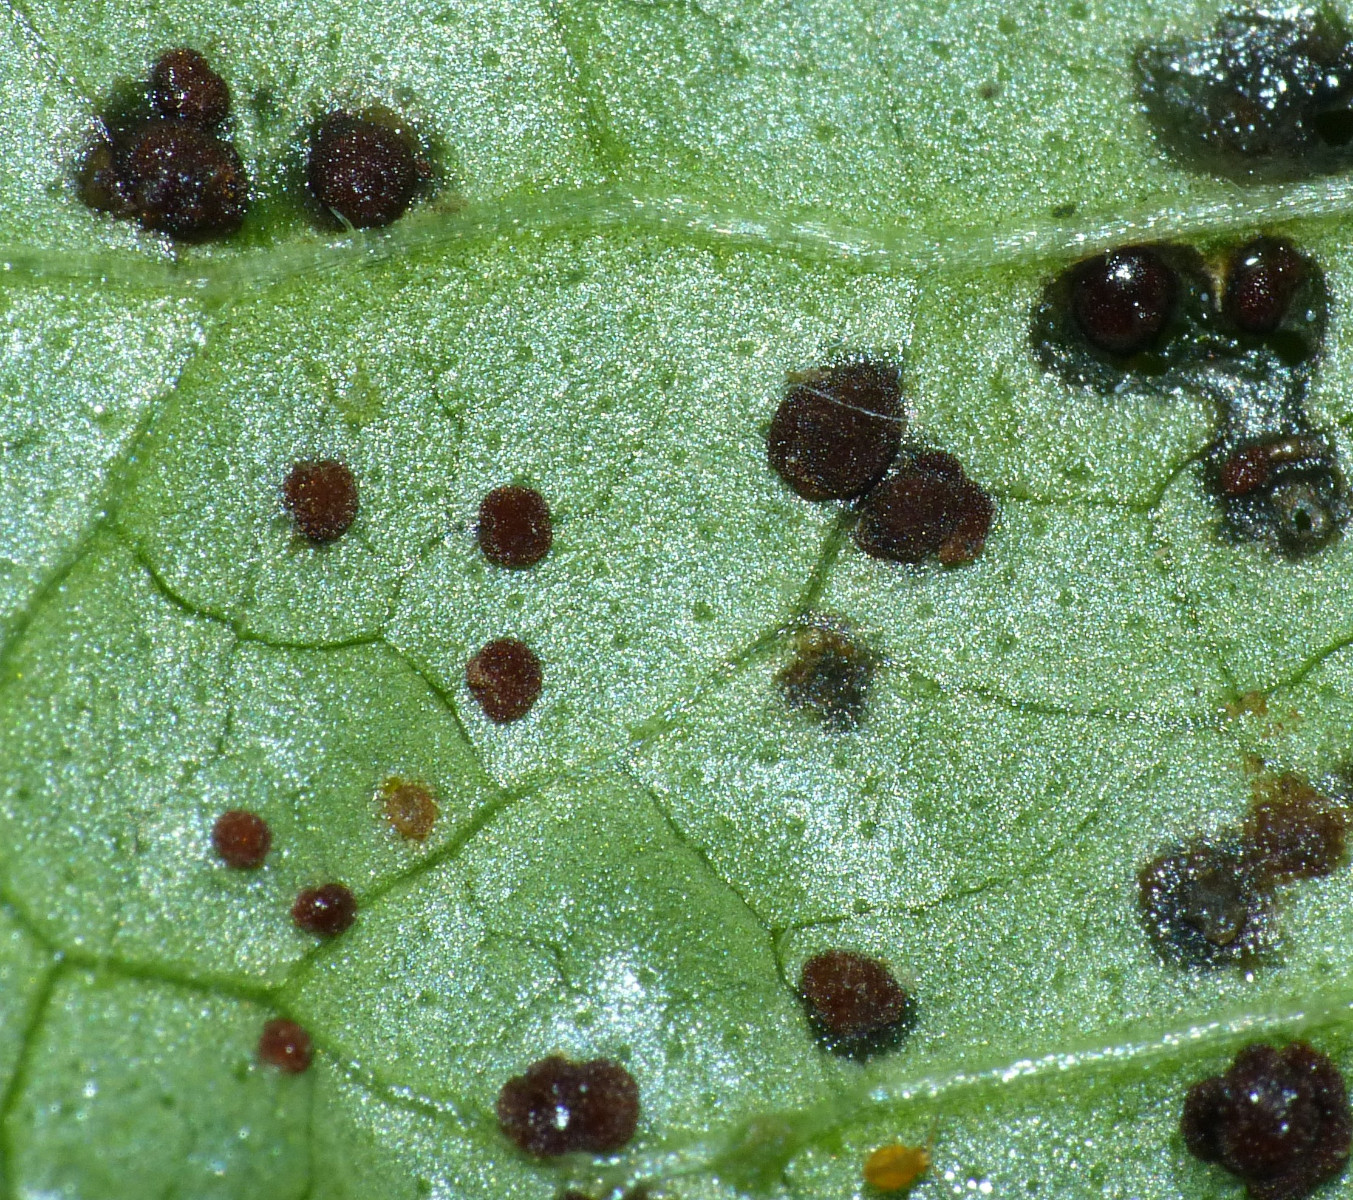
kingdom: Fungi
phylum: Basidiomycota
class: Pucciniomycetes
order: Pucciniales
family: Pucciniaceae
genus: Puccinia
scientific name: Puccinia glechomatis
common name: Ground ivy rust
